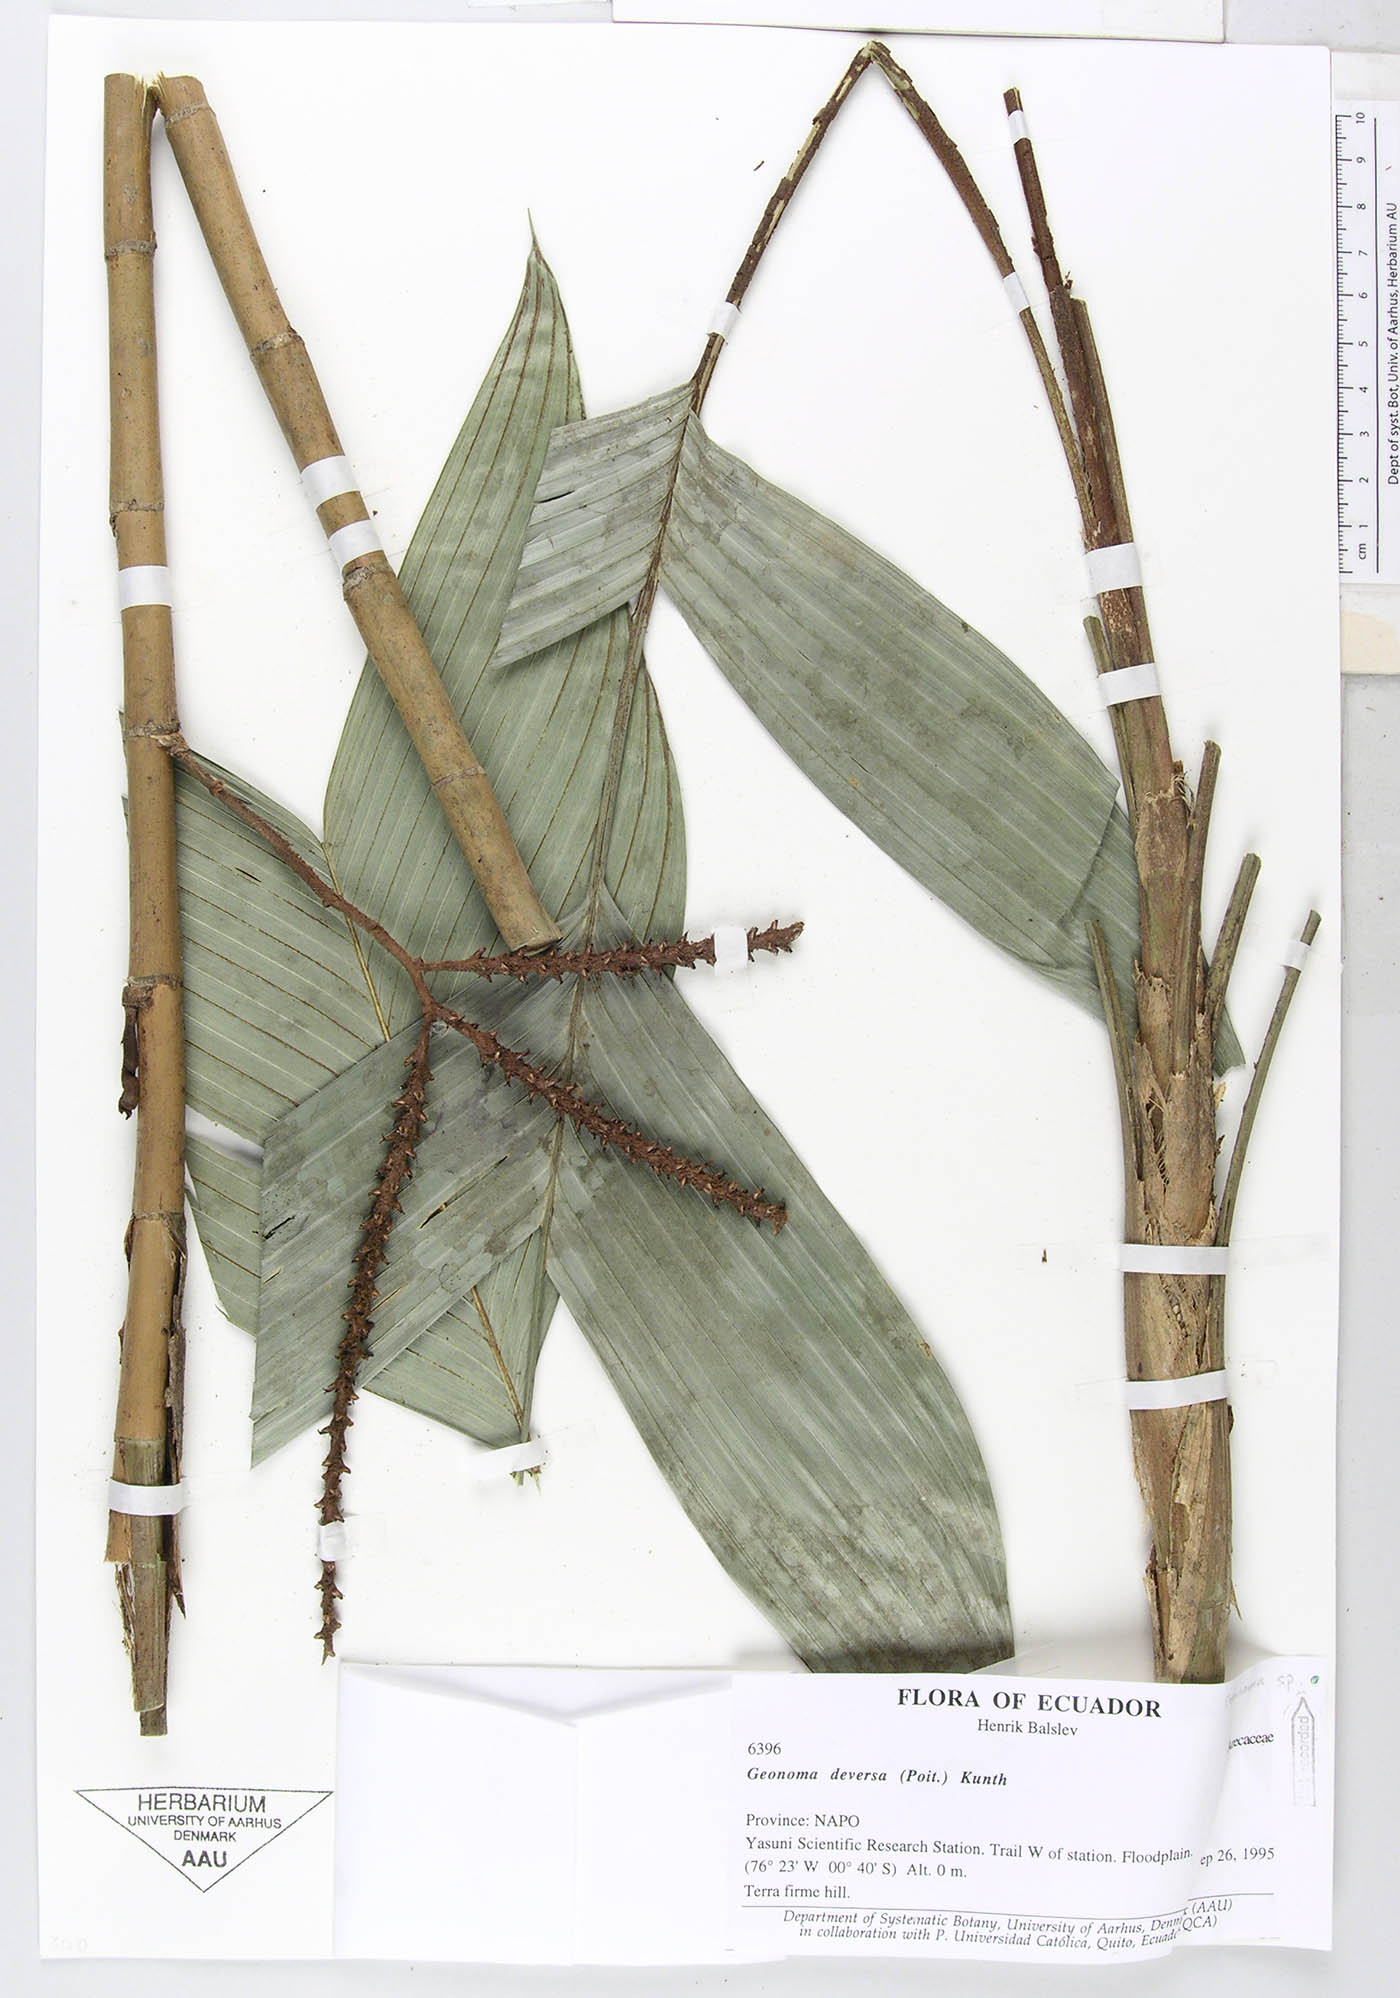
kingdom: Plantae
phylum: Tracheophyta
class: Liliopsida
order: Arecales
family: Arecaceae
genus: Geonoma
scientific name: Geonoma stricta
